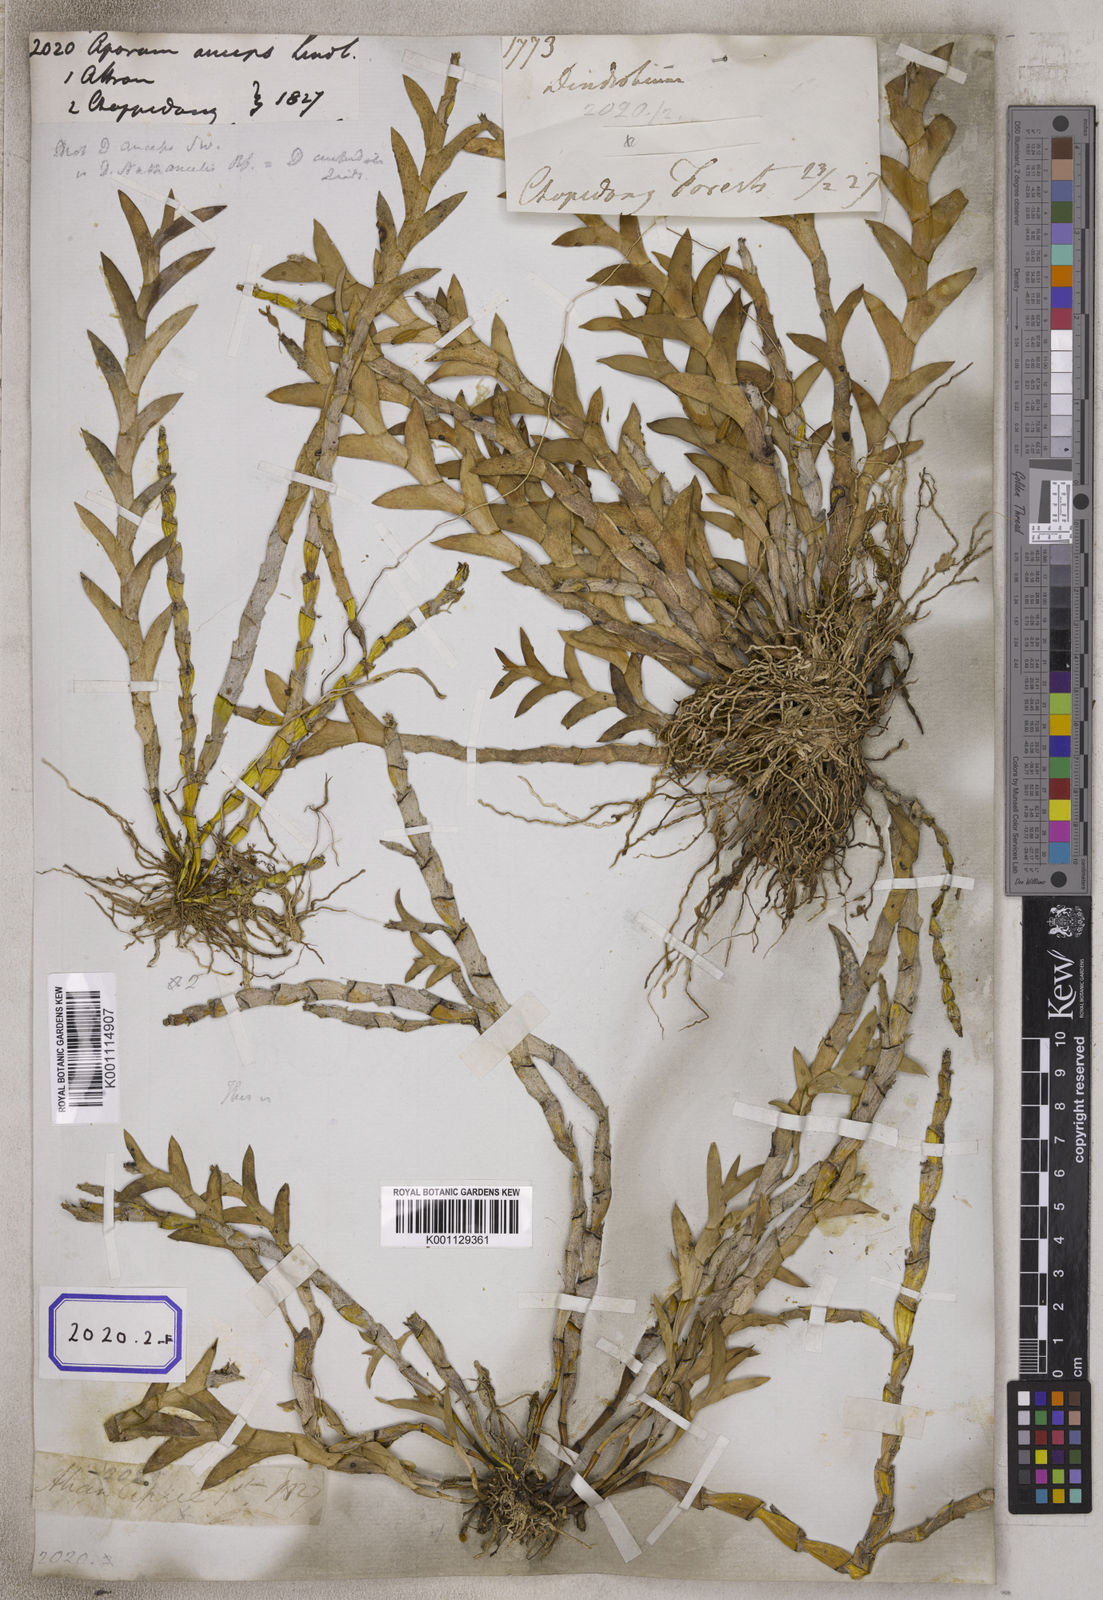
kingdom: Plantae
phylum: Tracheophyta
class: Liliopsida
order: Asparagales
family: Orchidaceae
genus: Dendrobium
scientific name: Dendrobium anceps
